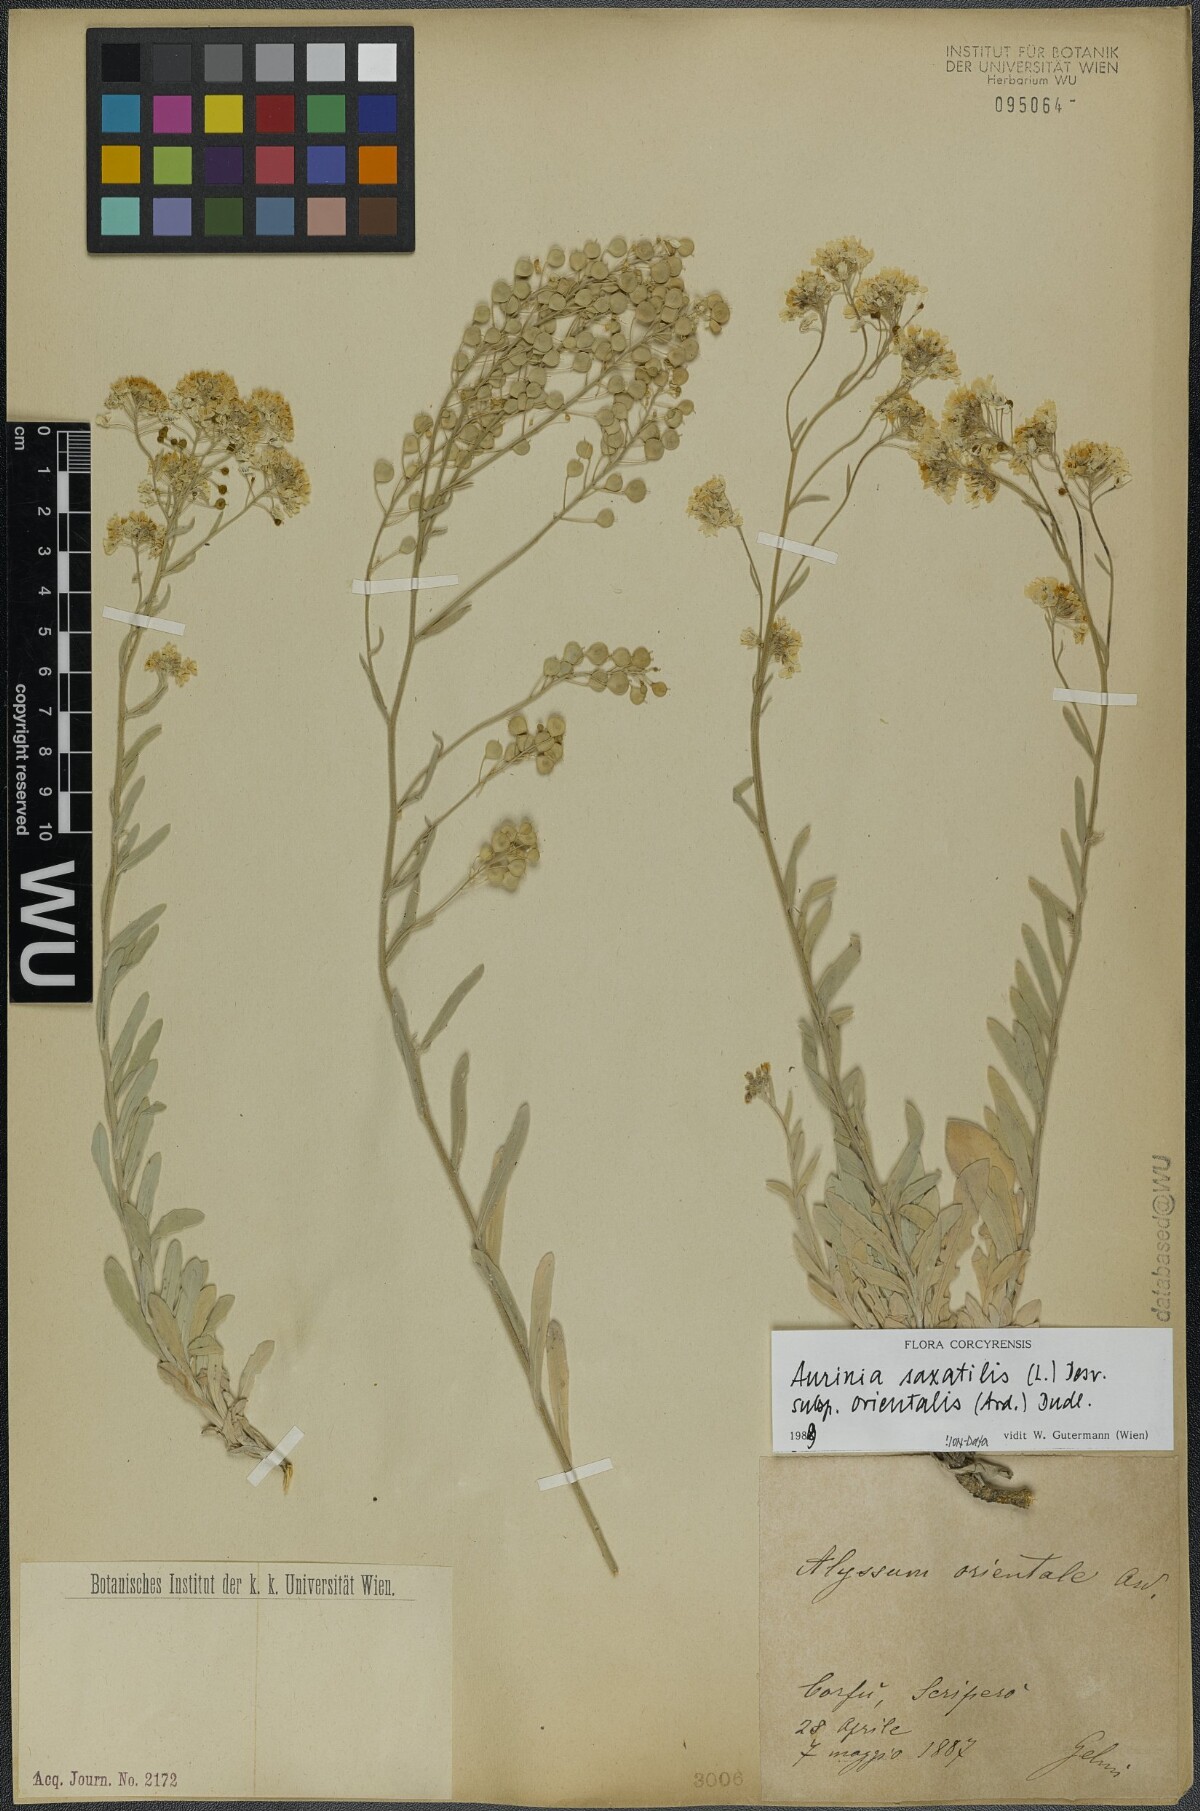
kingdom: Plantae
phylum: Tracheophyta
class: Magnoliopsida
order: Brassicales
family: Brassicaceae
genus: Aurinia
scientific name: Aurinia saxatilis
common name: Golden-tuft alyssum
